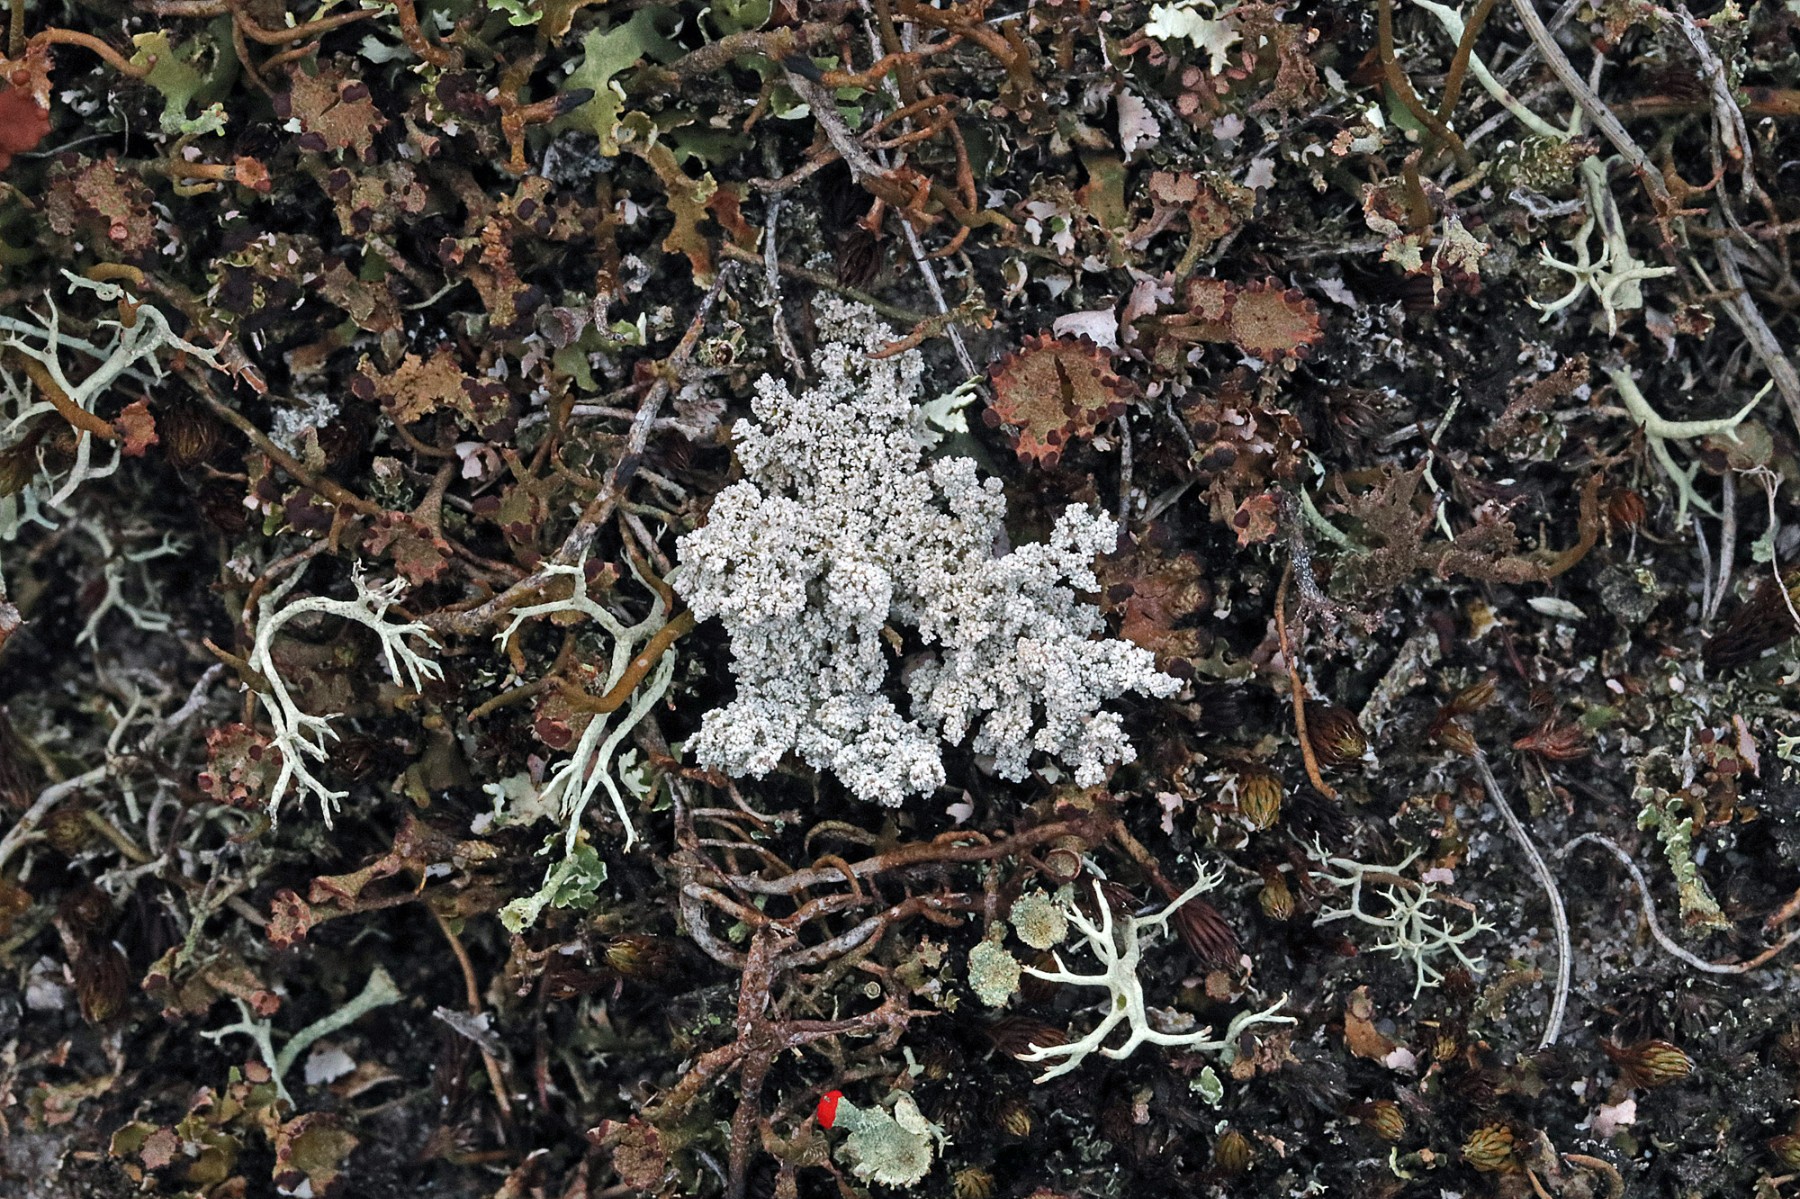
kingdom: Fungi
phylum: Ascomycota
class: Lecanoromycetes
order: Lecanorales
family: Stereocaulaceae
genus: Stereocaulon
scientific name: Stereocaulon saxatile
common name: klit-korallav
